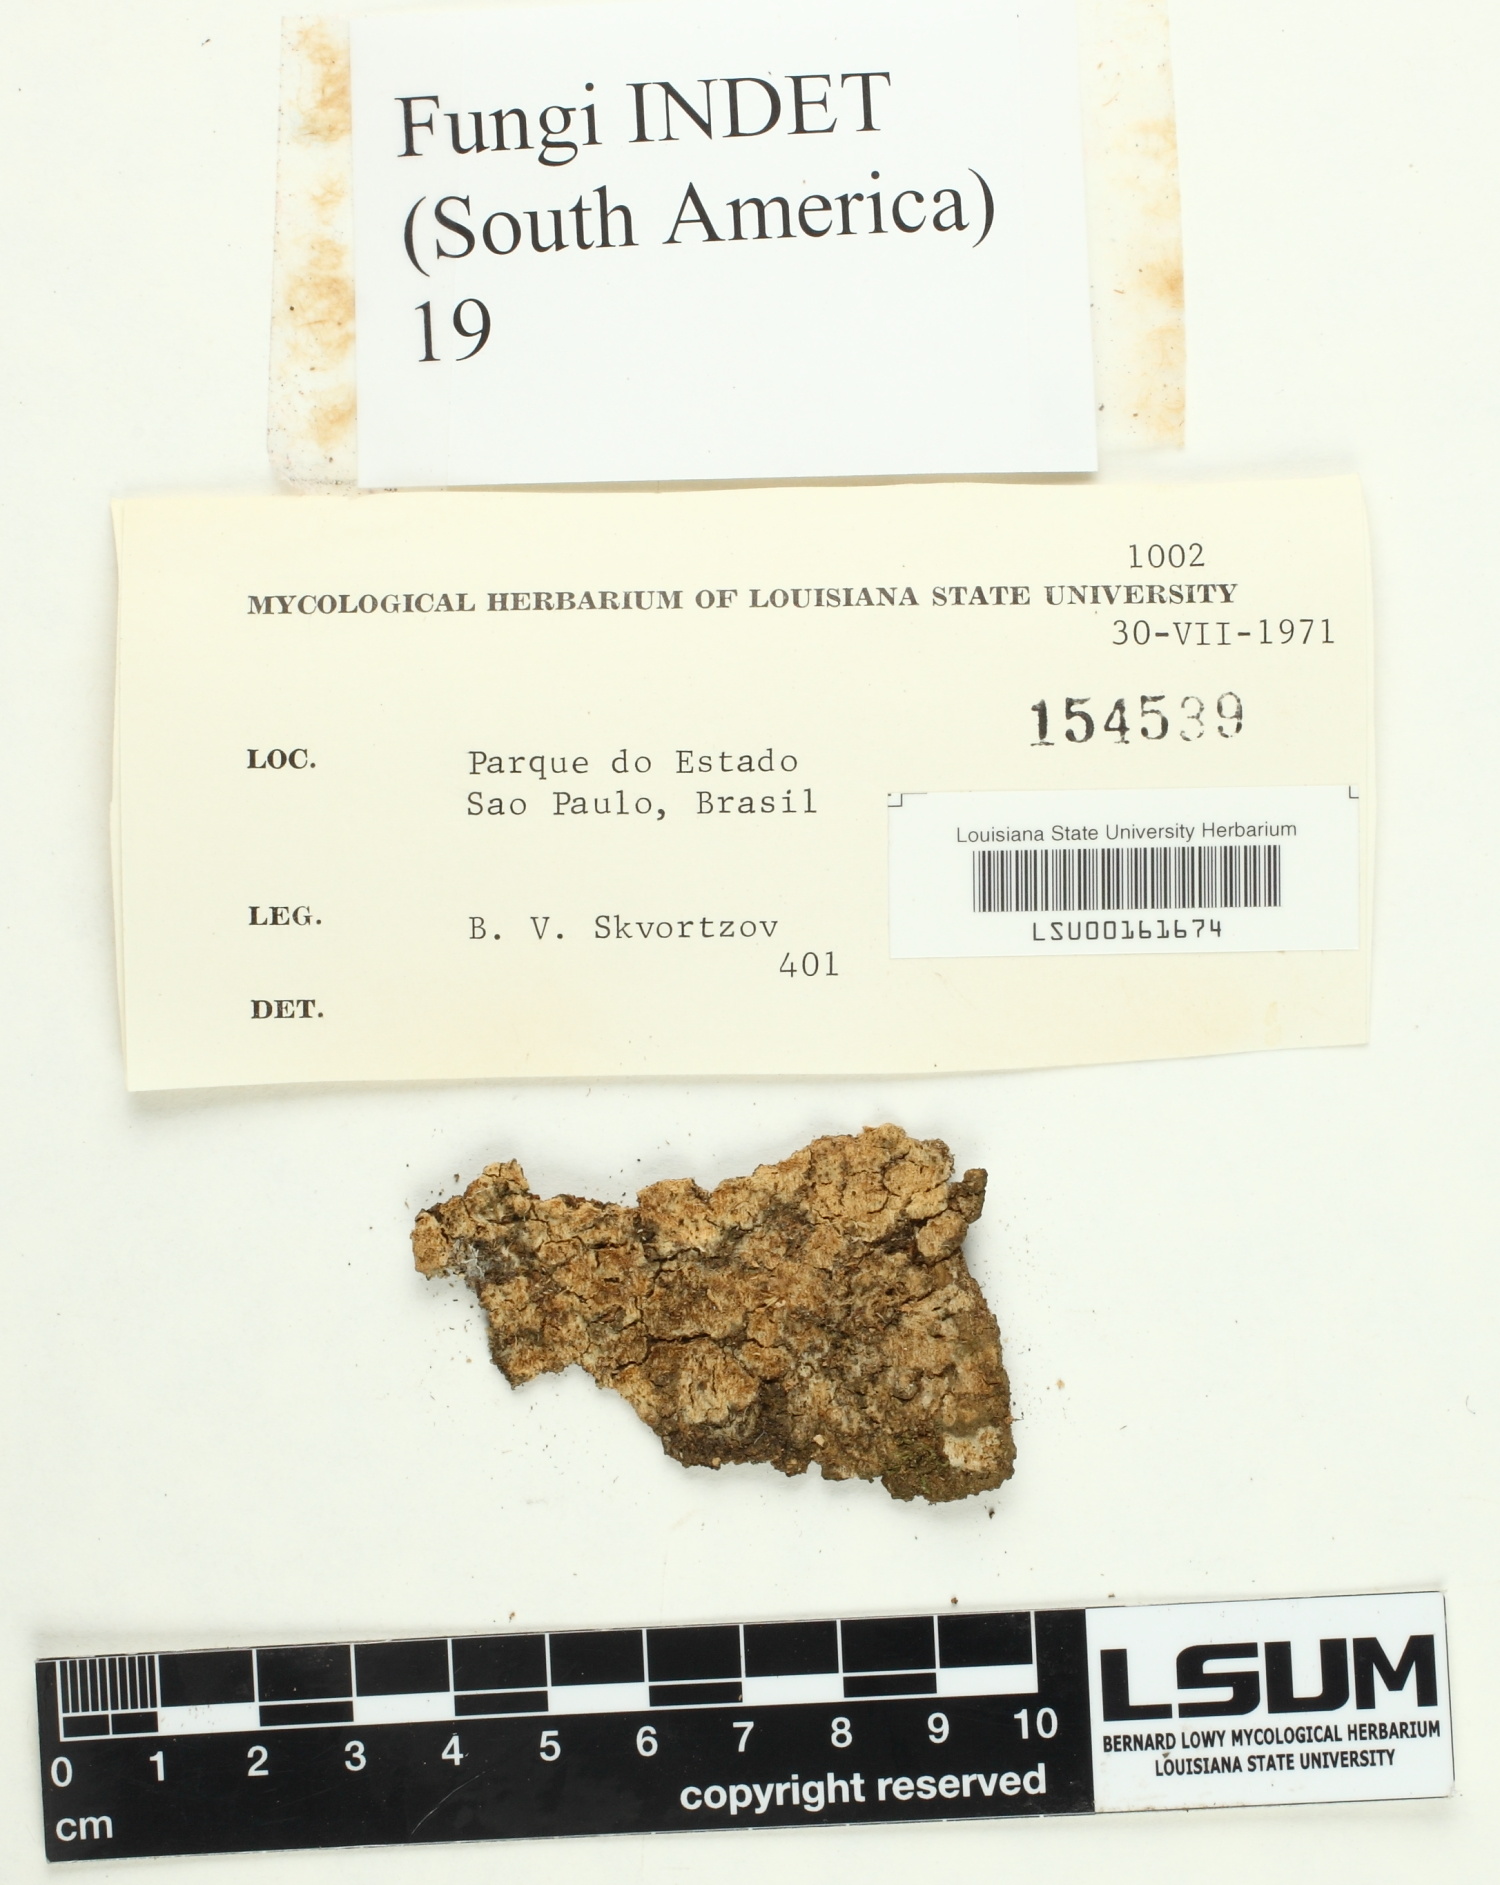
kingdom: Fungi
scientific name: Fungi
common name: Fungi
